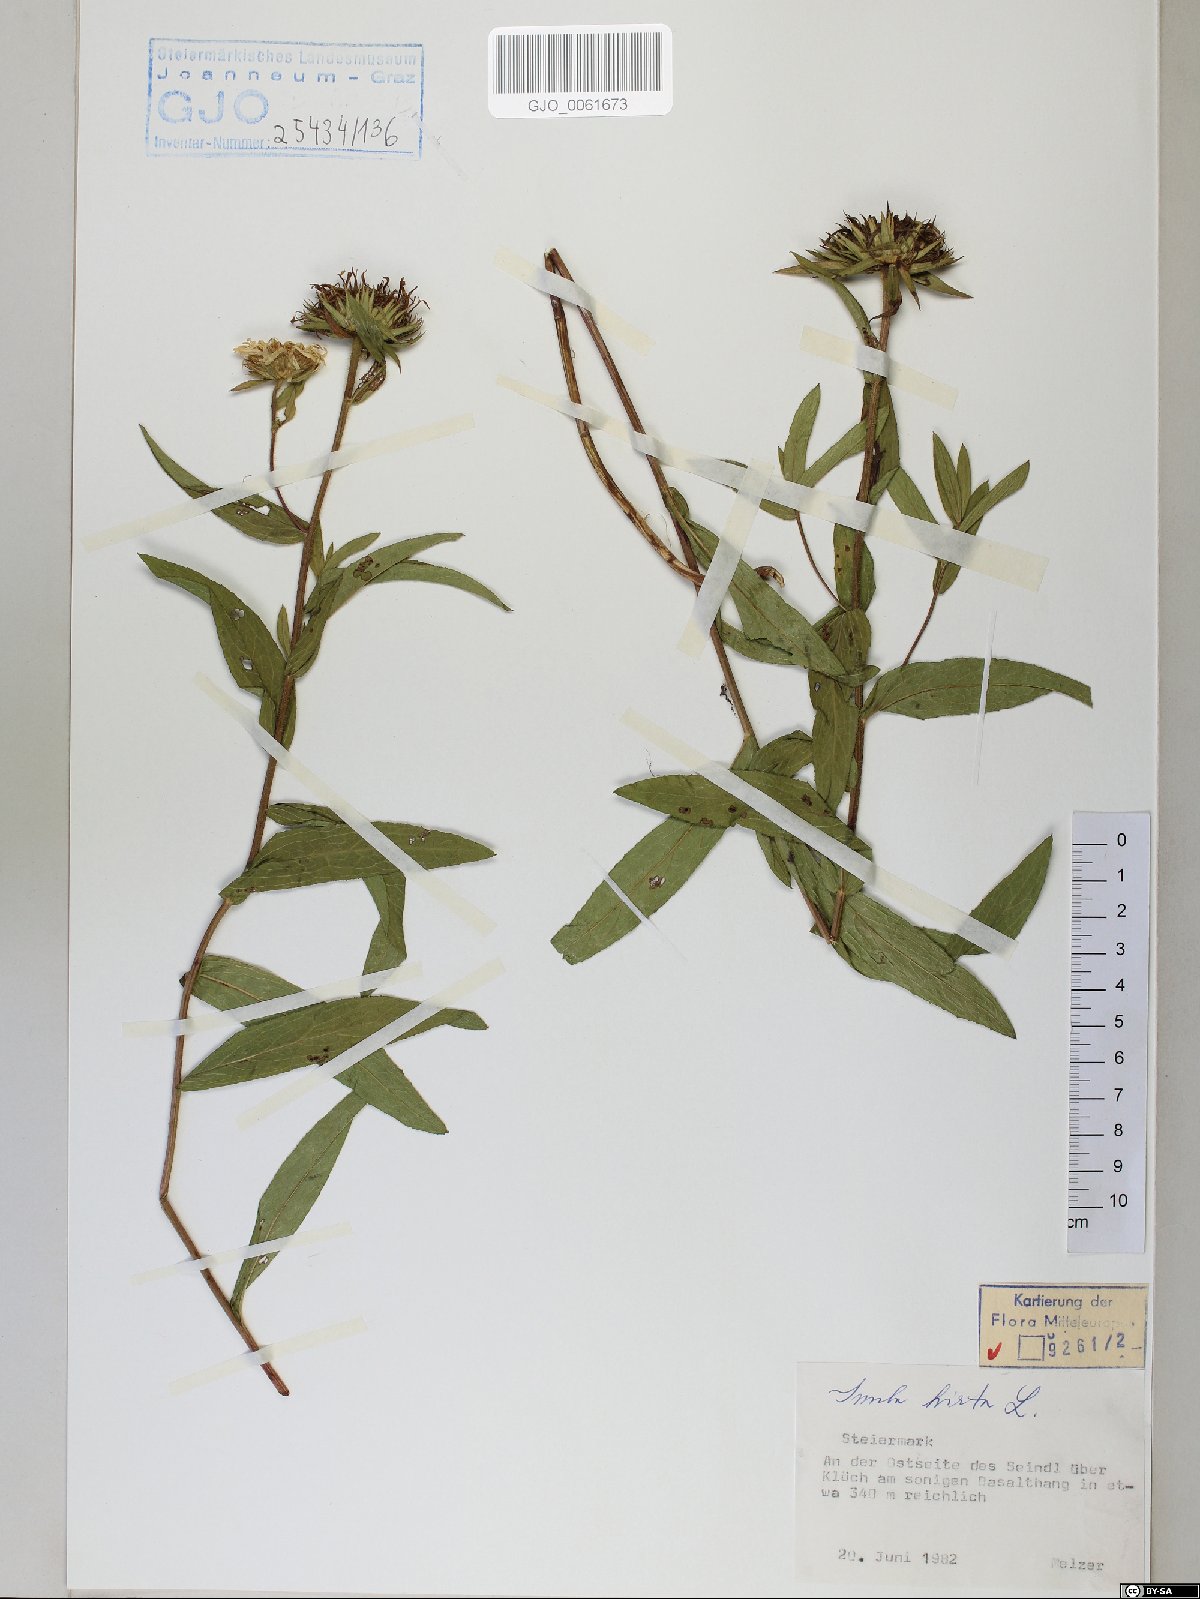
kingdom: Plantae
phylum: Tracheophyta
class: Magnoliopsida
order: Asterales
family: Asteraceae
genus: Pentanema
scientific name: Pentanema hirtum
